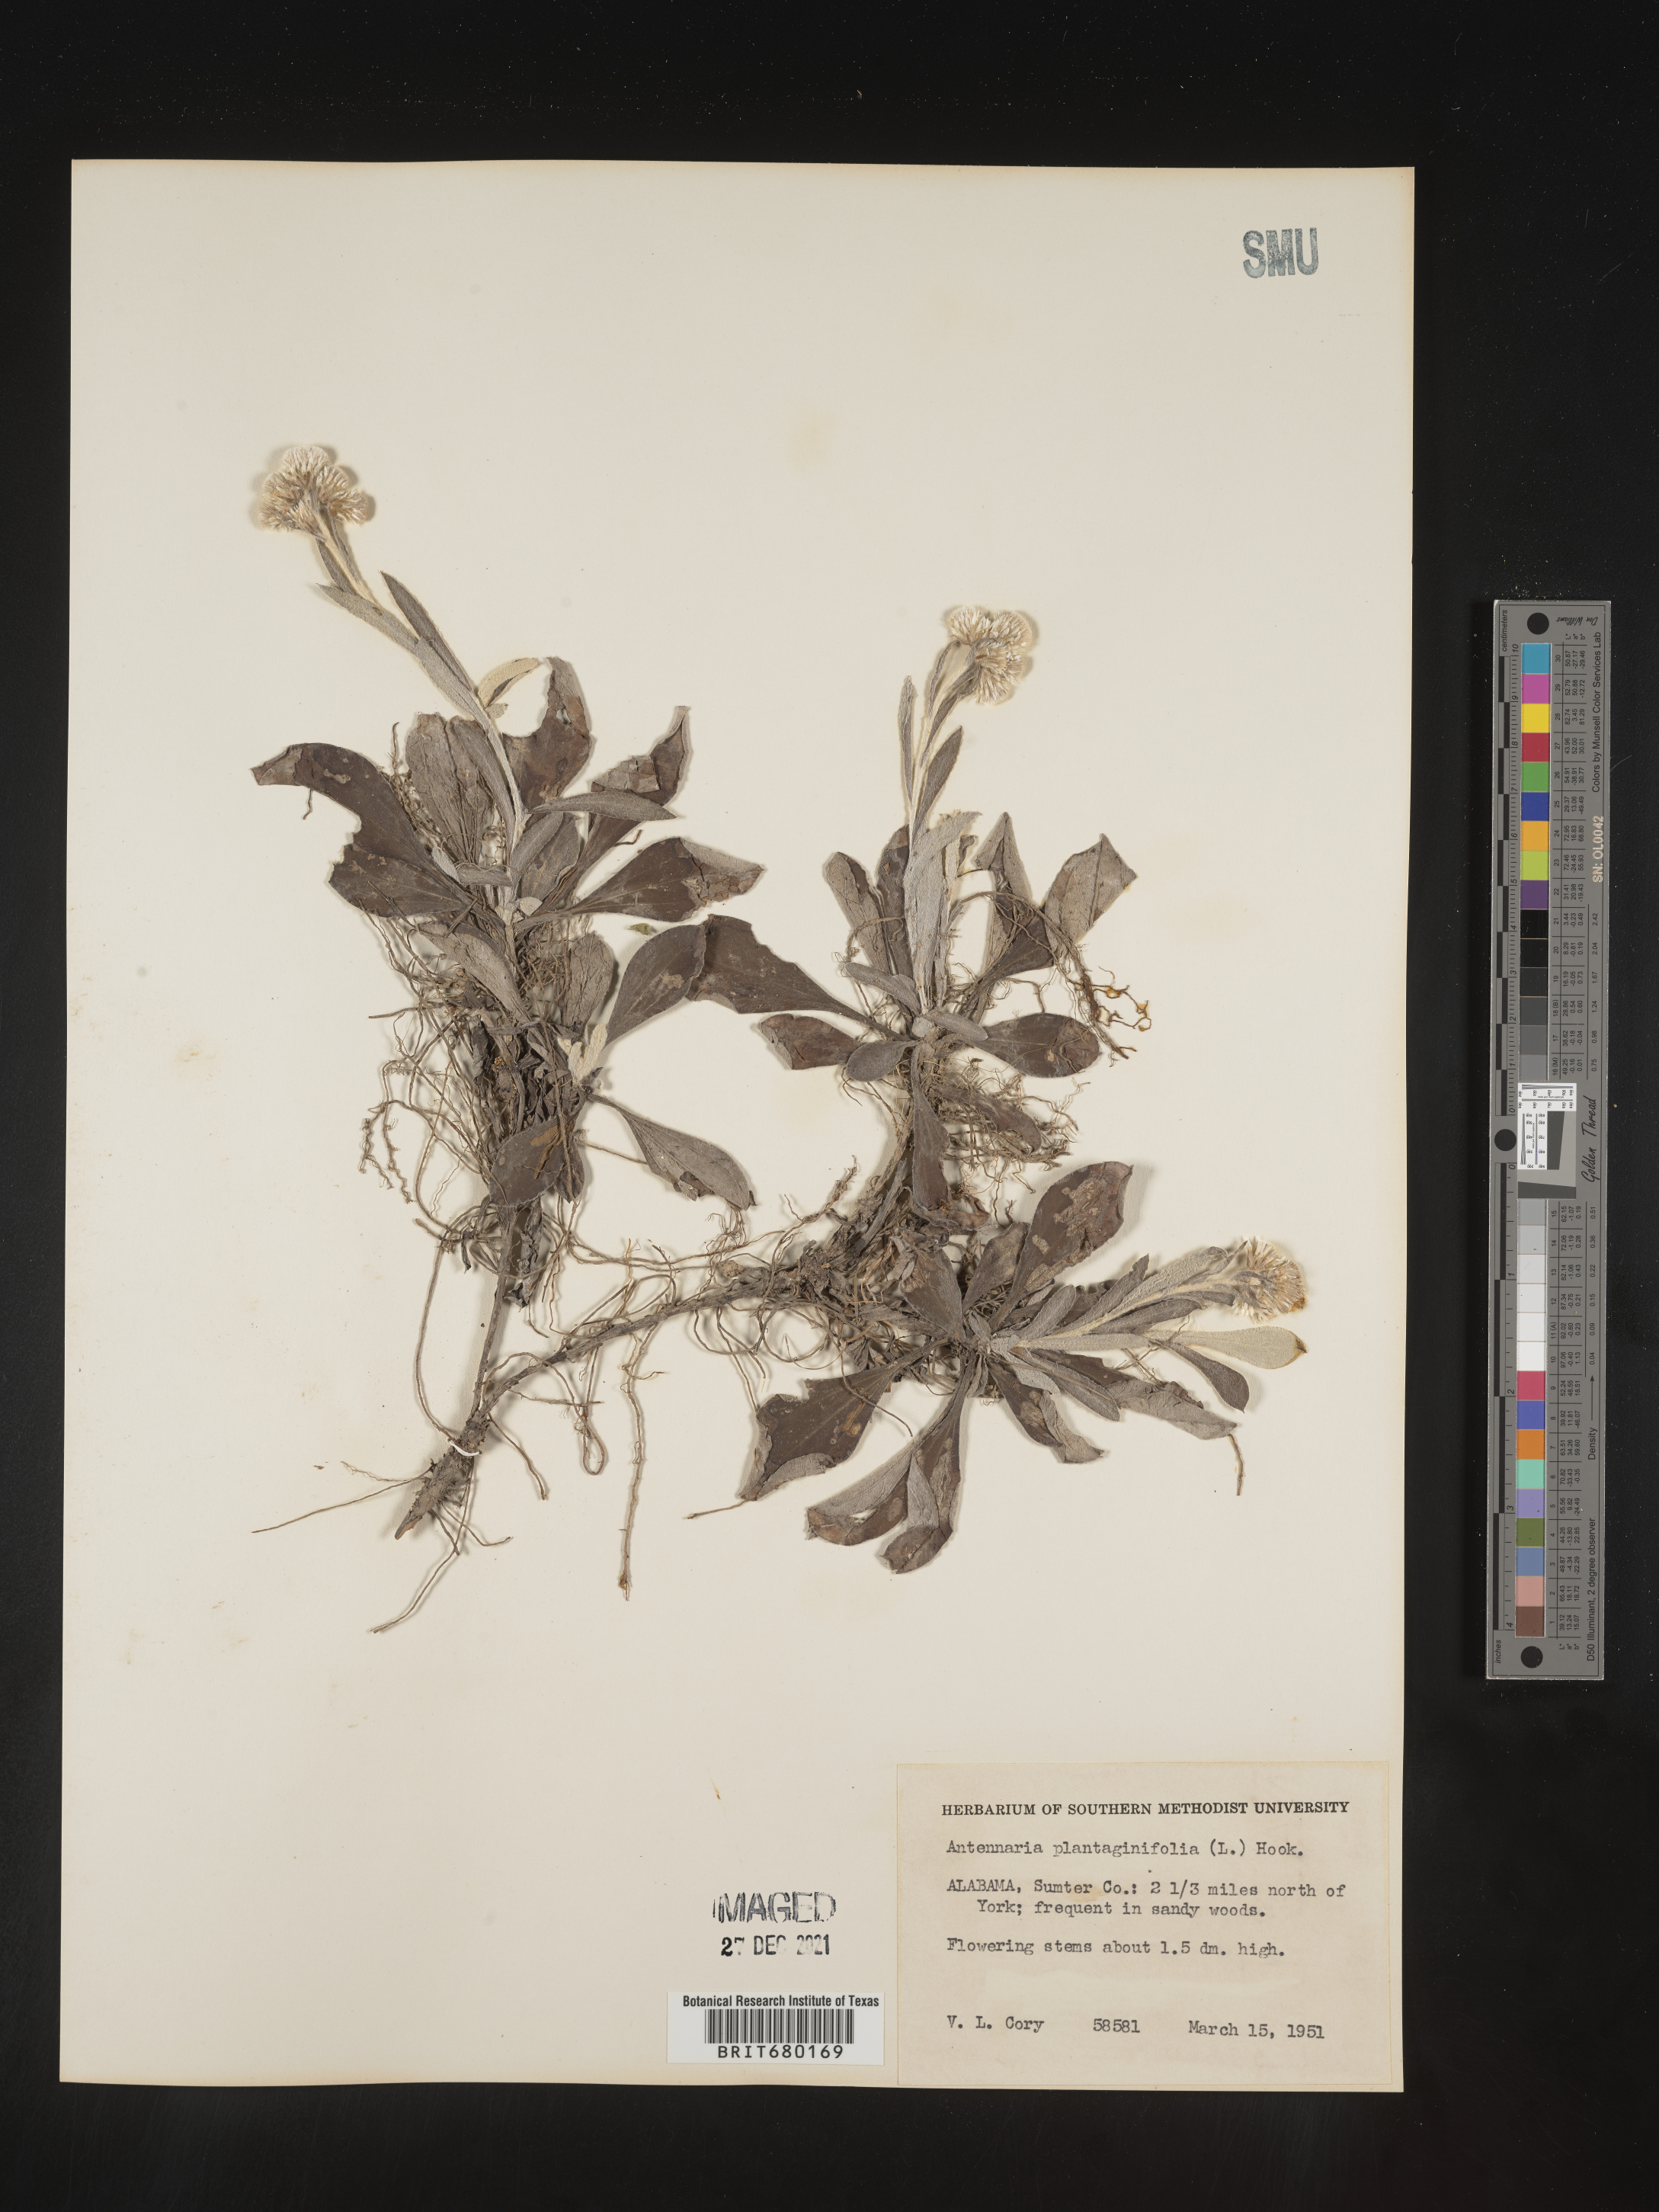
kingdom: Plantae
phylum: Tracheophyta
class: Magnoliopsida
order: Asterales
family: Asteraceae
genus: Antennaria
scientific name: Antennaria plantaginifolia
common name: Plantain-leaved pussytoes
